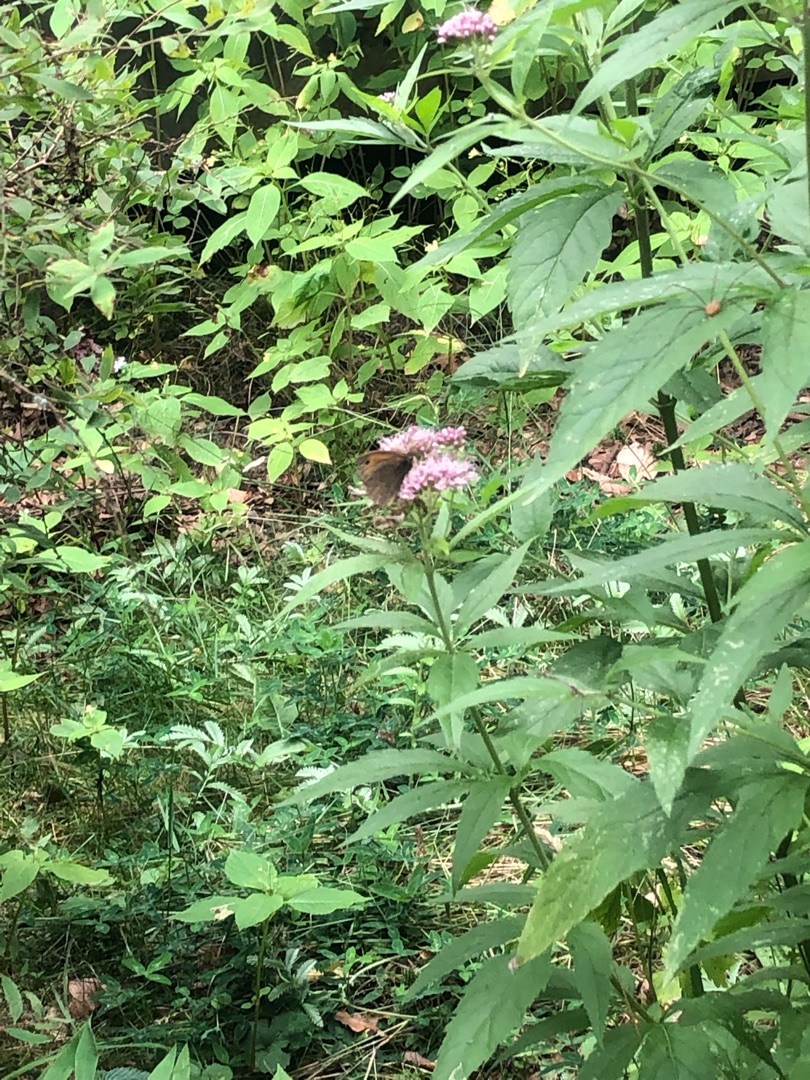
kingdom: Animalia
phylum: Arthropoda
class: Insecta
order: Lepidoptera
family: Nymphalidae
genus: Maniola
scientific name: Maniola jurtina
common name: Græsrandøje
